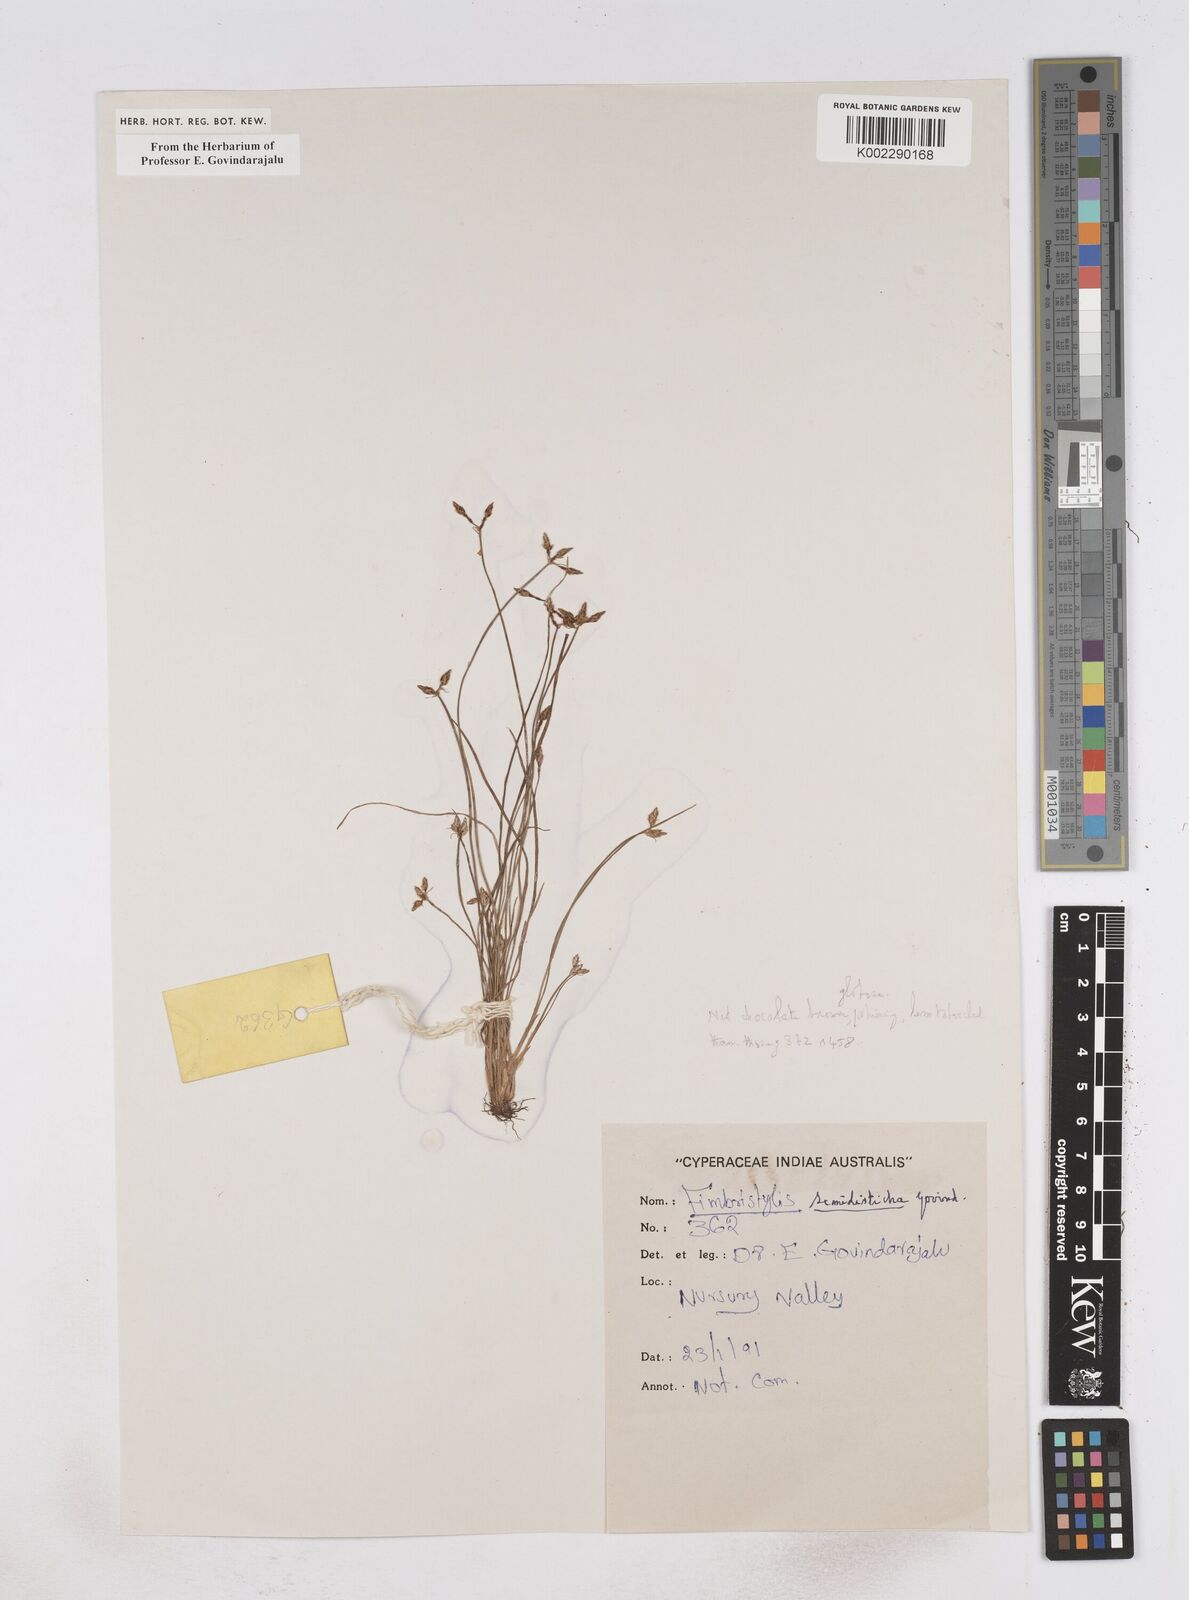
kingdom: Plantae
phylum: Tracheophyta
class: Liliopsida
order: Poales
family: Cyperaceae
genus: Fimbristylis
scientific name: Fimbristylis semidisticha
